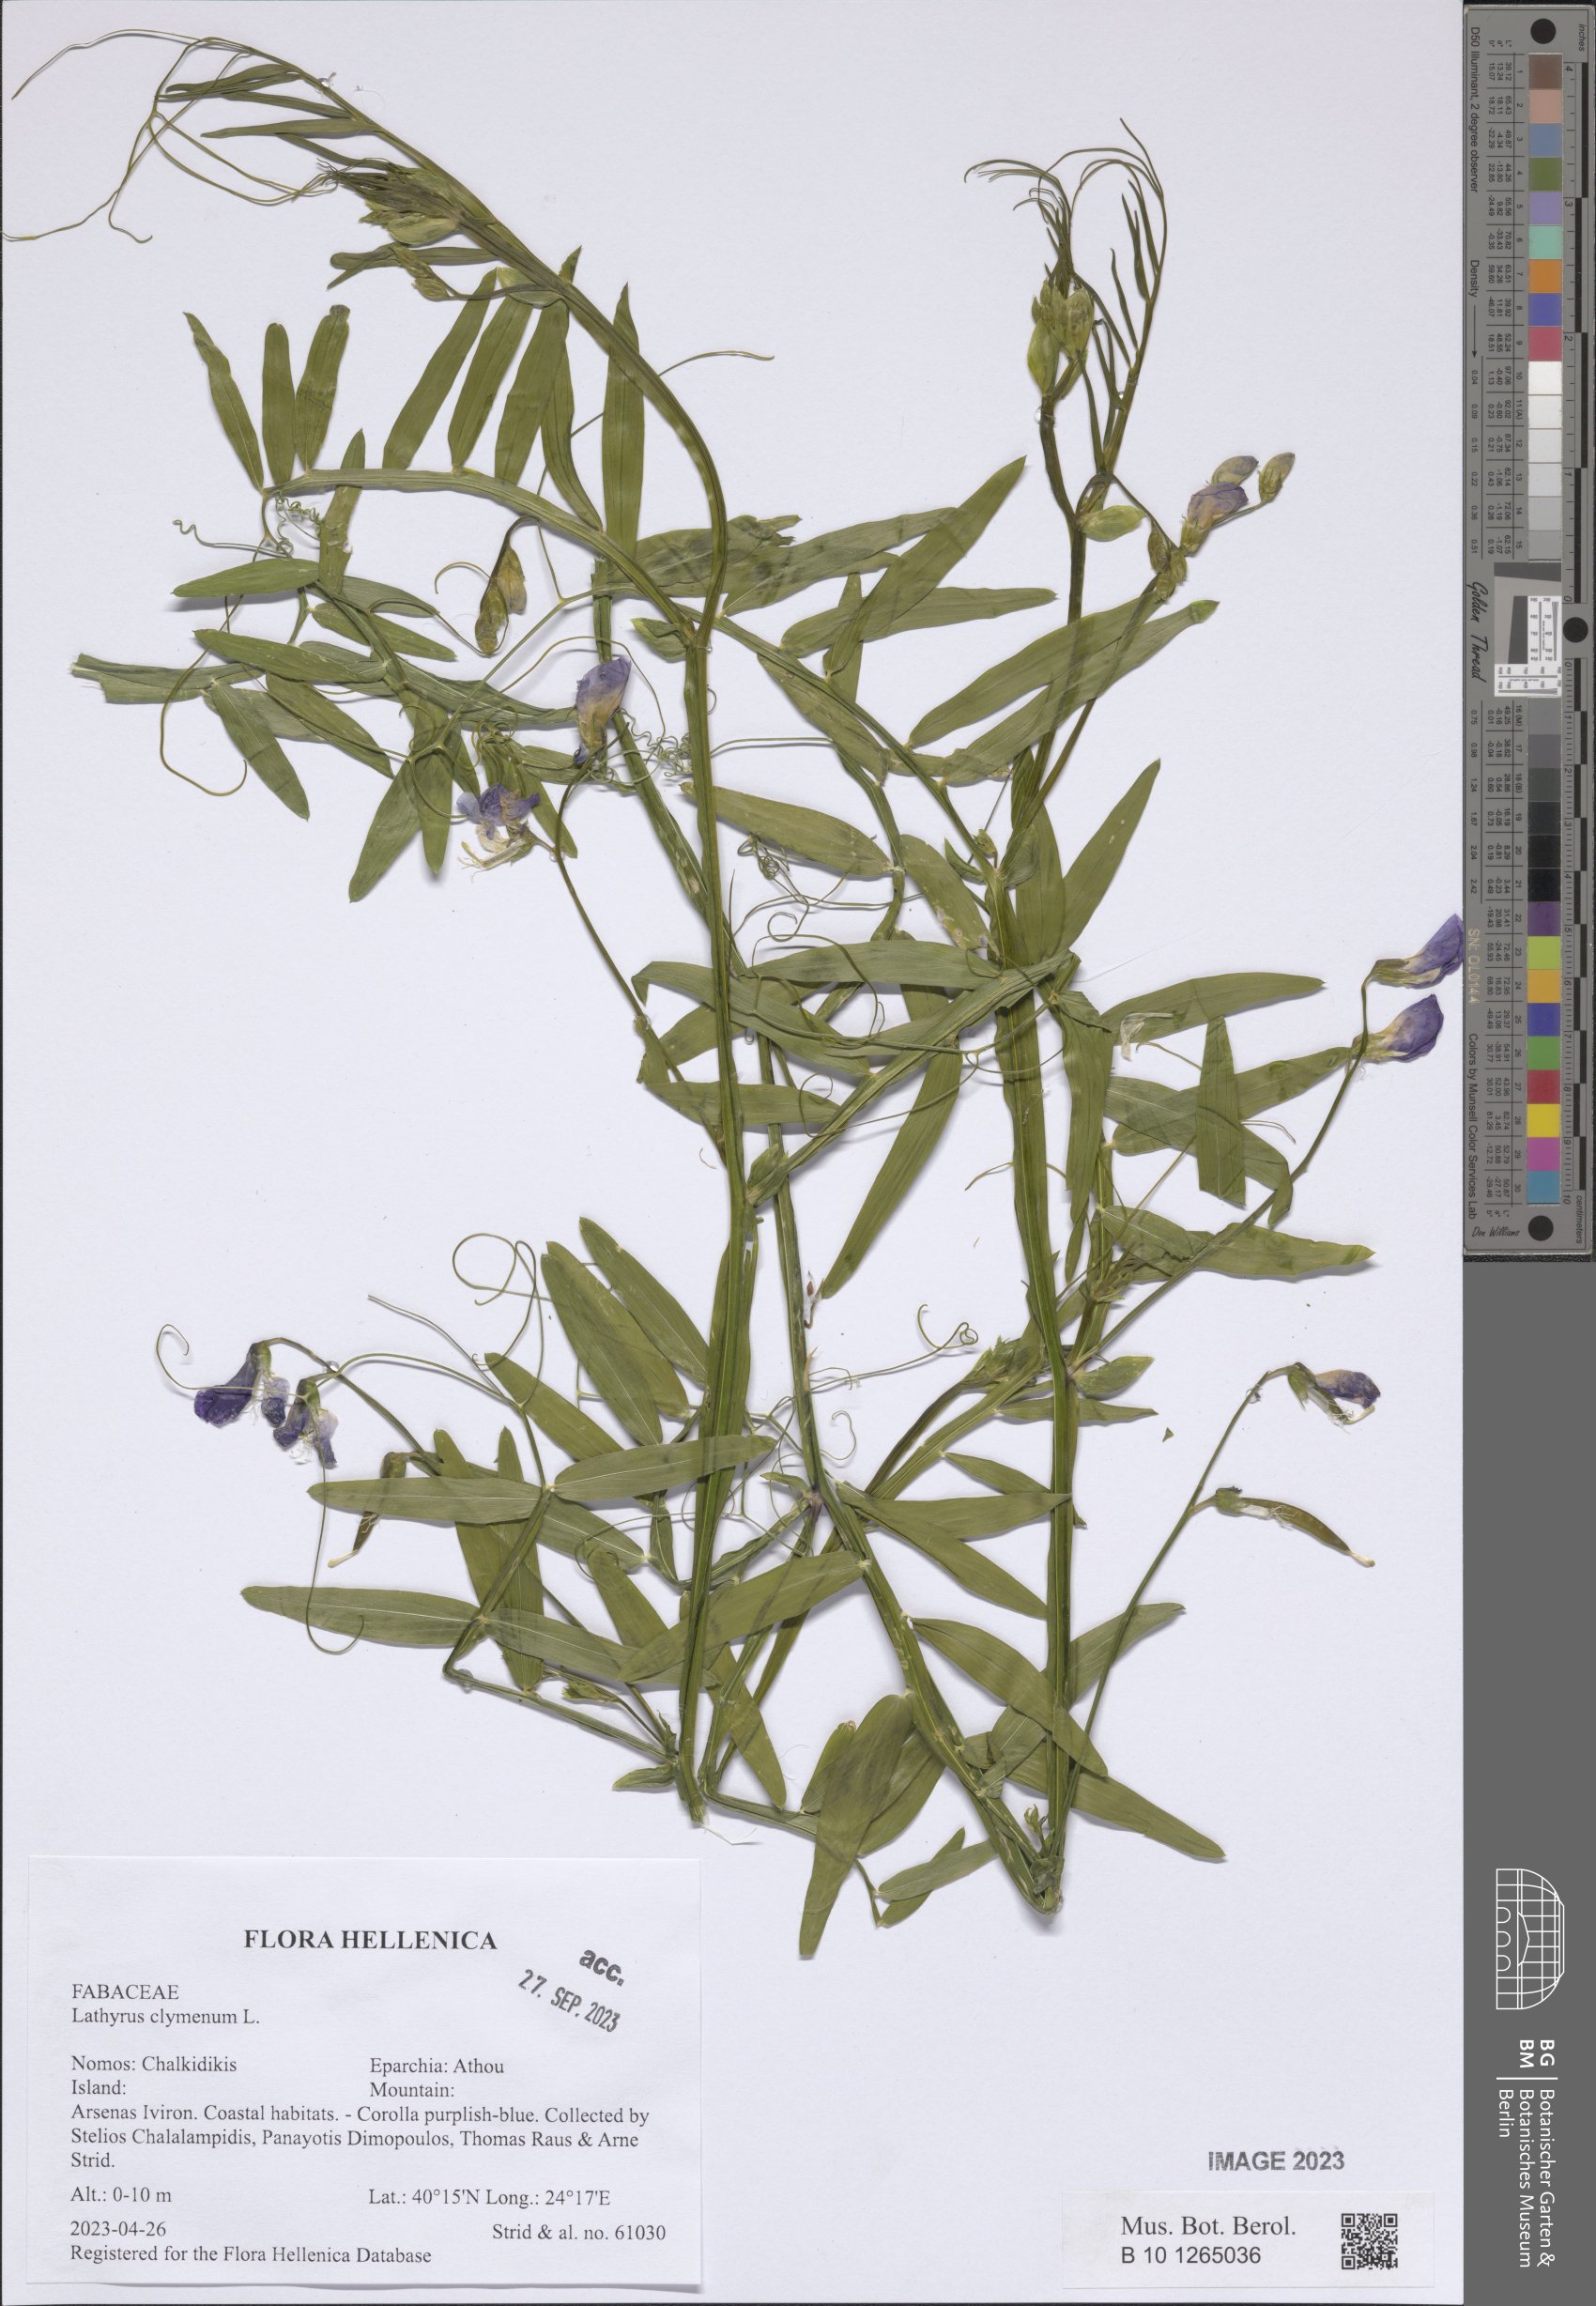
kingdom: Plantae
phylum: Tracheophyta
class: Magnoliopsida
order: Fabales
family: Fabaceae
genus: Lathyrus
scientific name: Lathyrus clymenum
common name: Spanish vetchling
